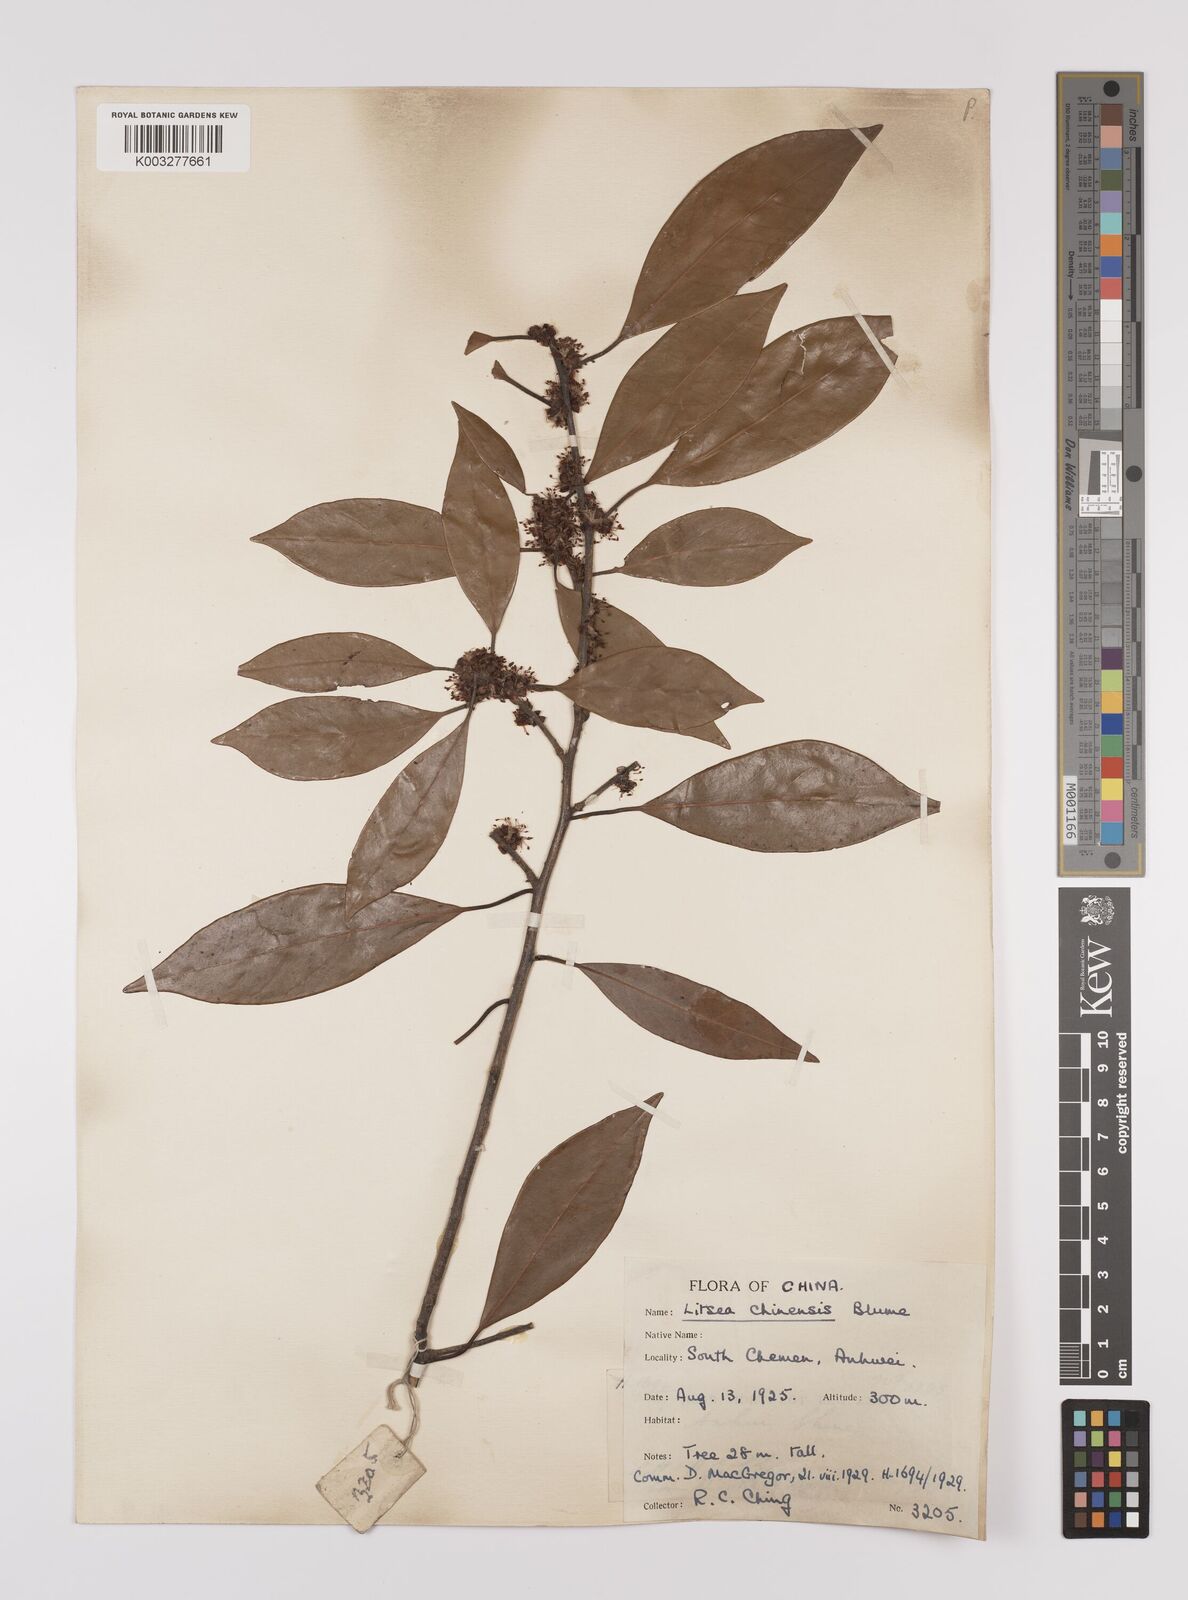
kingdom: Plantae
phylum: Tracheophyta
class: Magnoliopsida
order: Laurales
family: Lauraceae
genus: Litsea
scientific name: Litsea rotundifolia
